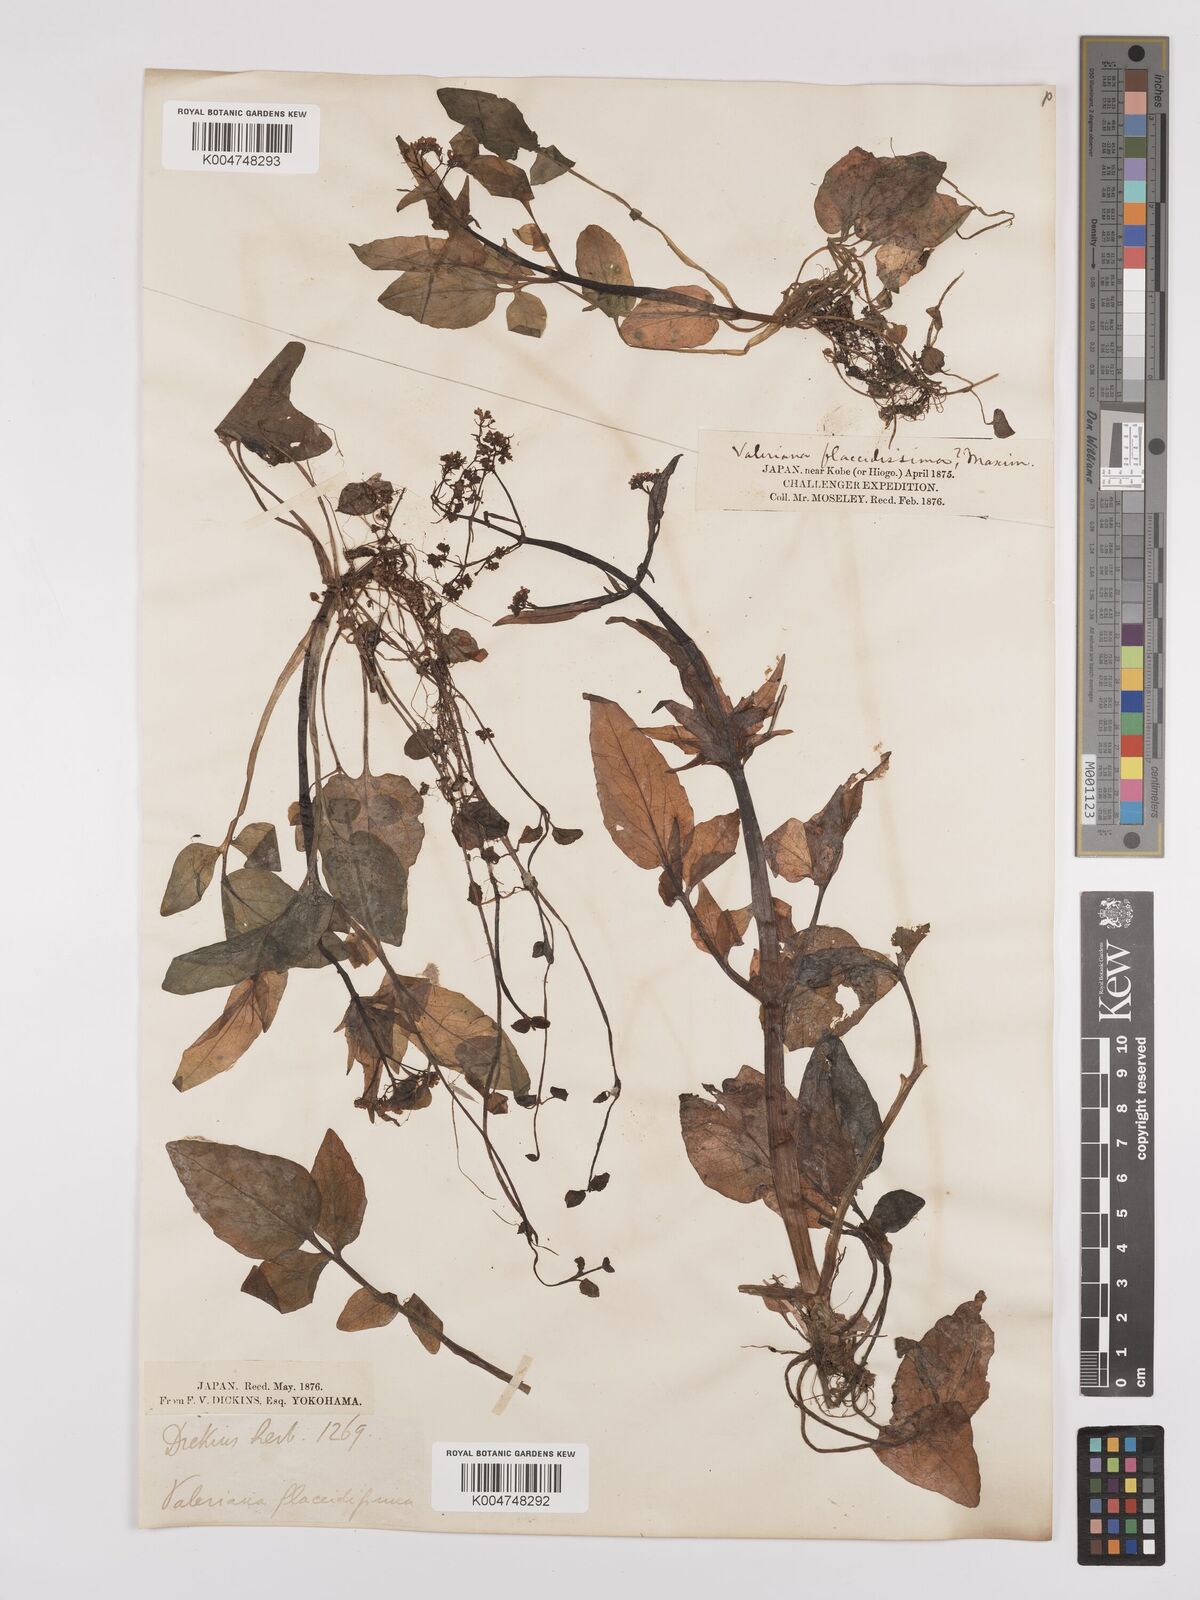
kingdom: Plantae
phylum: Tracheophyta
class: Magnoliopsida
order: Dipsacales
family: Caprifoliaceae
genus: Valeriana
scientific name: Valeriana flaccidissima
